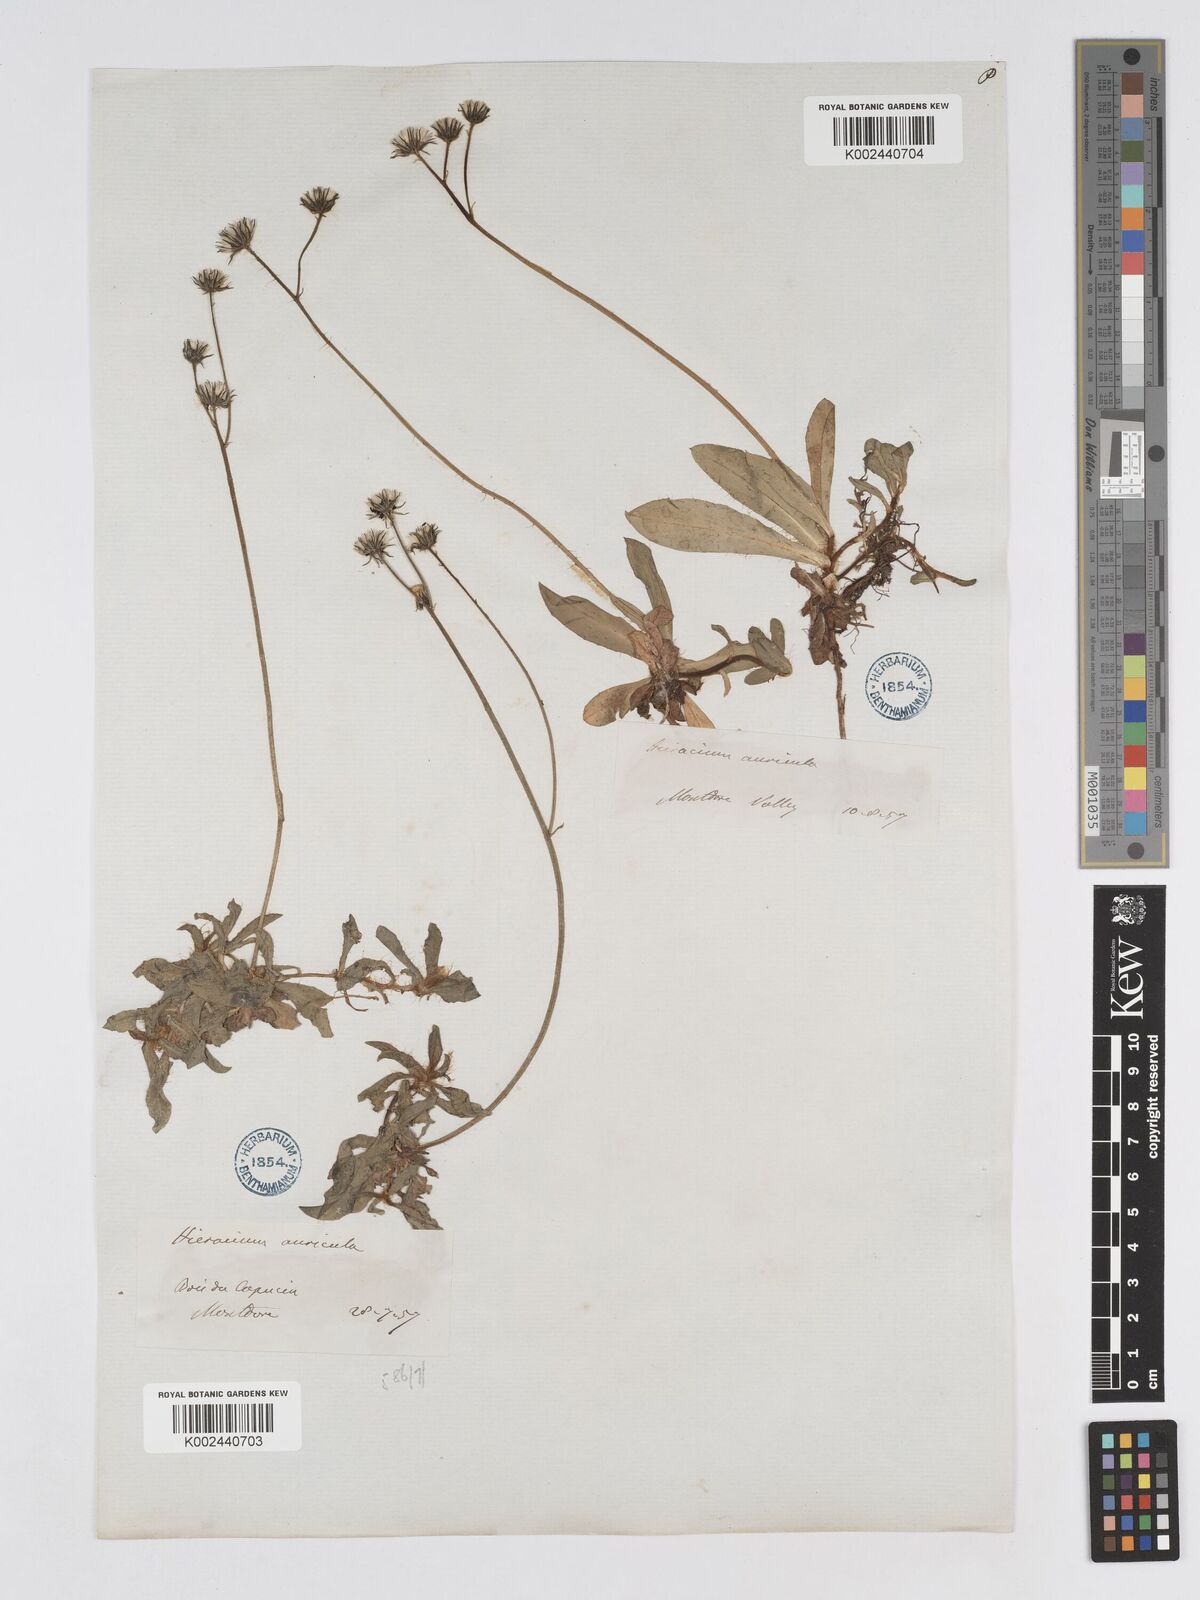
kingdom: Plantae
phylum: Tracheophyta
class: Magnoliopsida
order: Asterales
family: Asteraceae
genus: Pilosella
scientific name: Pilosella floribunda
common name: Glaucous hawkweed
